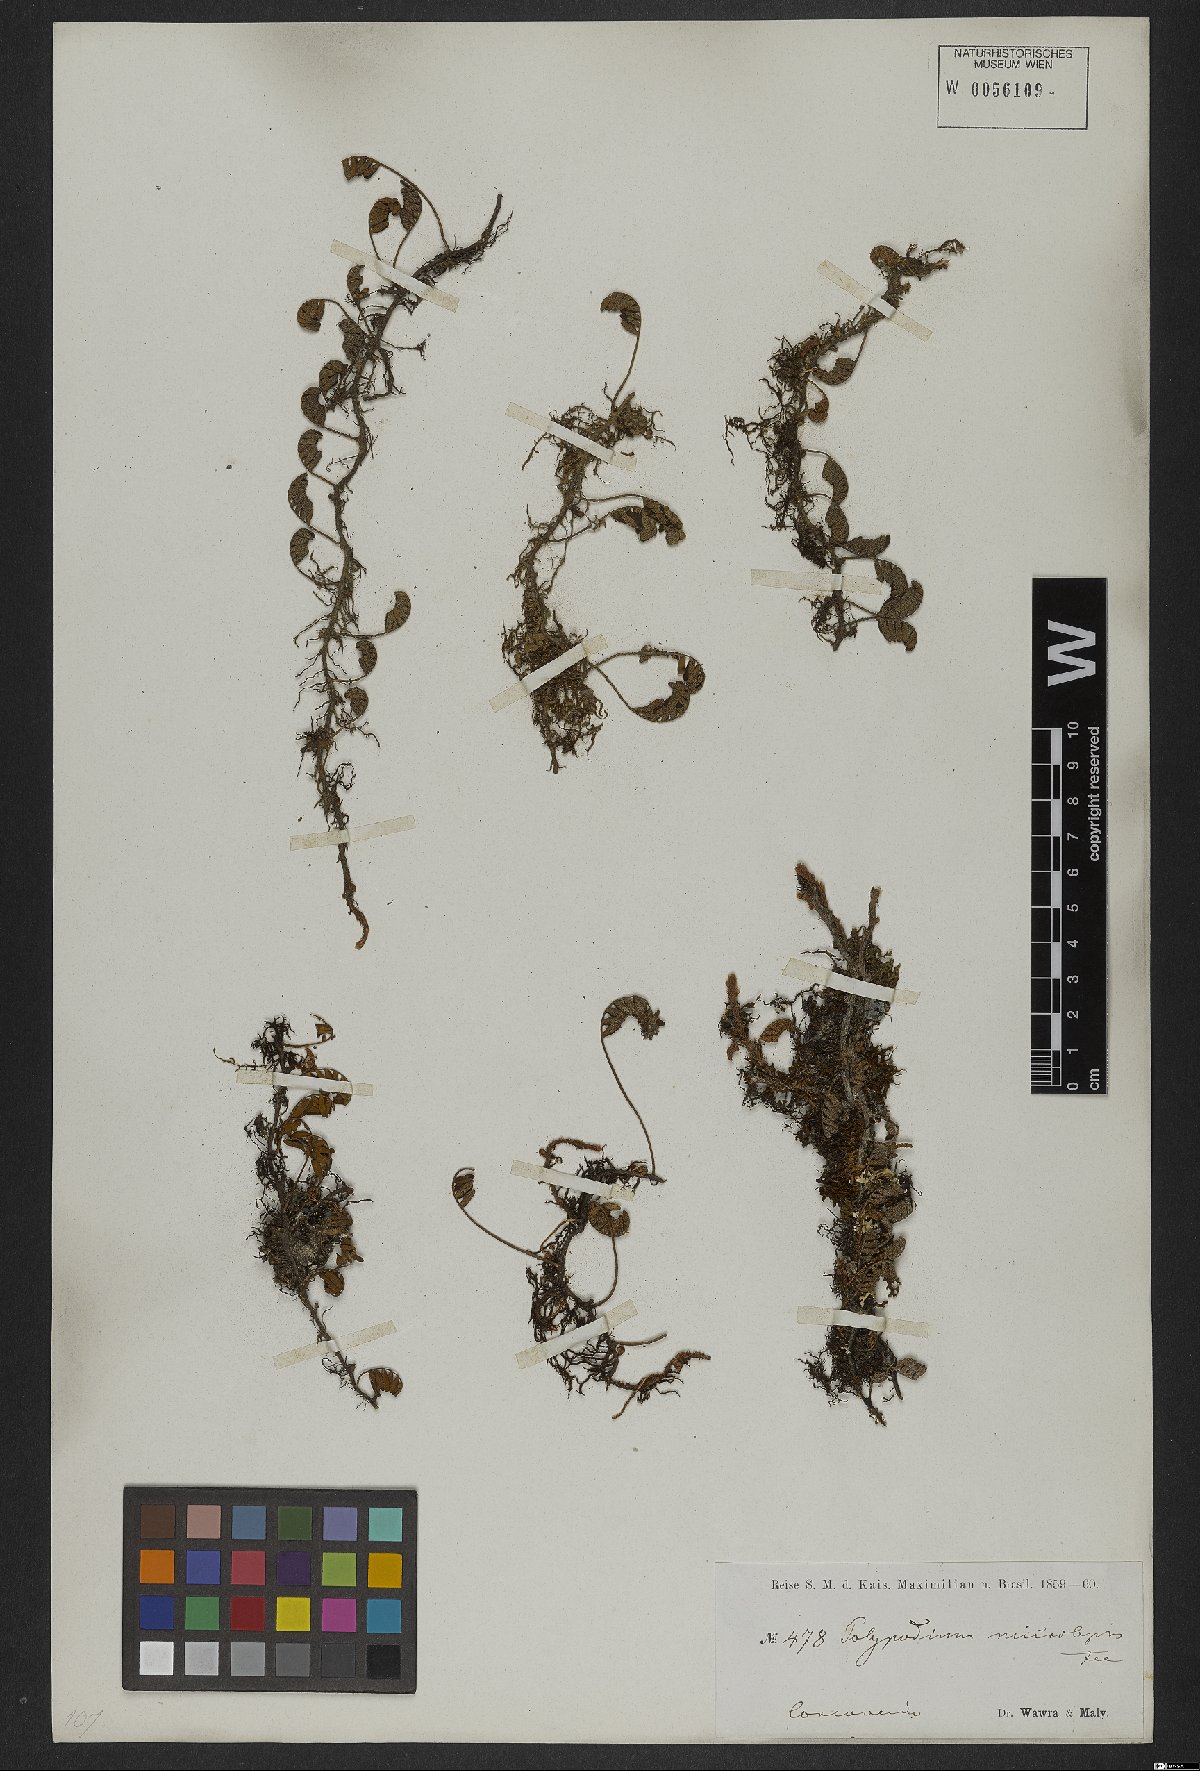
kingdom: Plantae
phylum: Tracheophyta
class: Polypodiopsida
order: Polypodiales
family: Polypodiaceae
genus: Pleopeltis
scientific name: Pleopeltis polypodioides
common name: Resurrection fern
